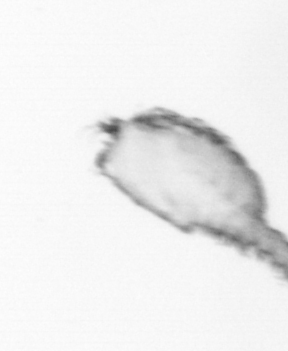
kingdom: Animalia
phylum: Arthropoda
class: Copepoda
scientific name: Copepoda
